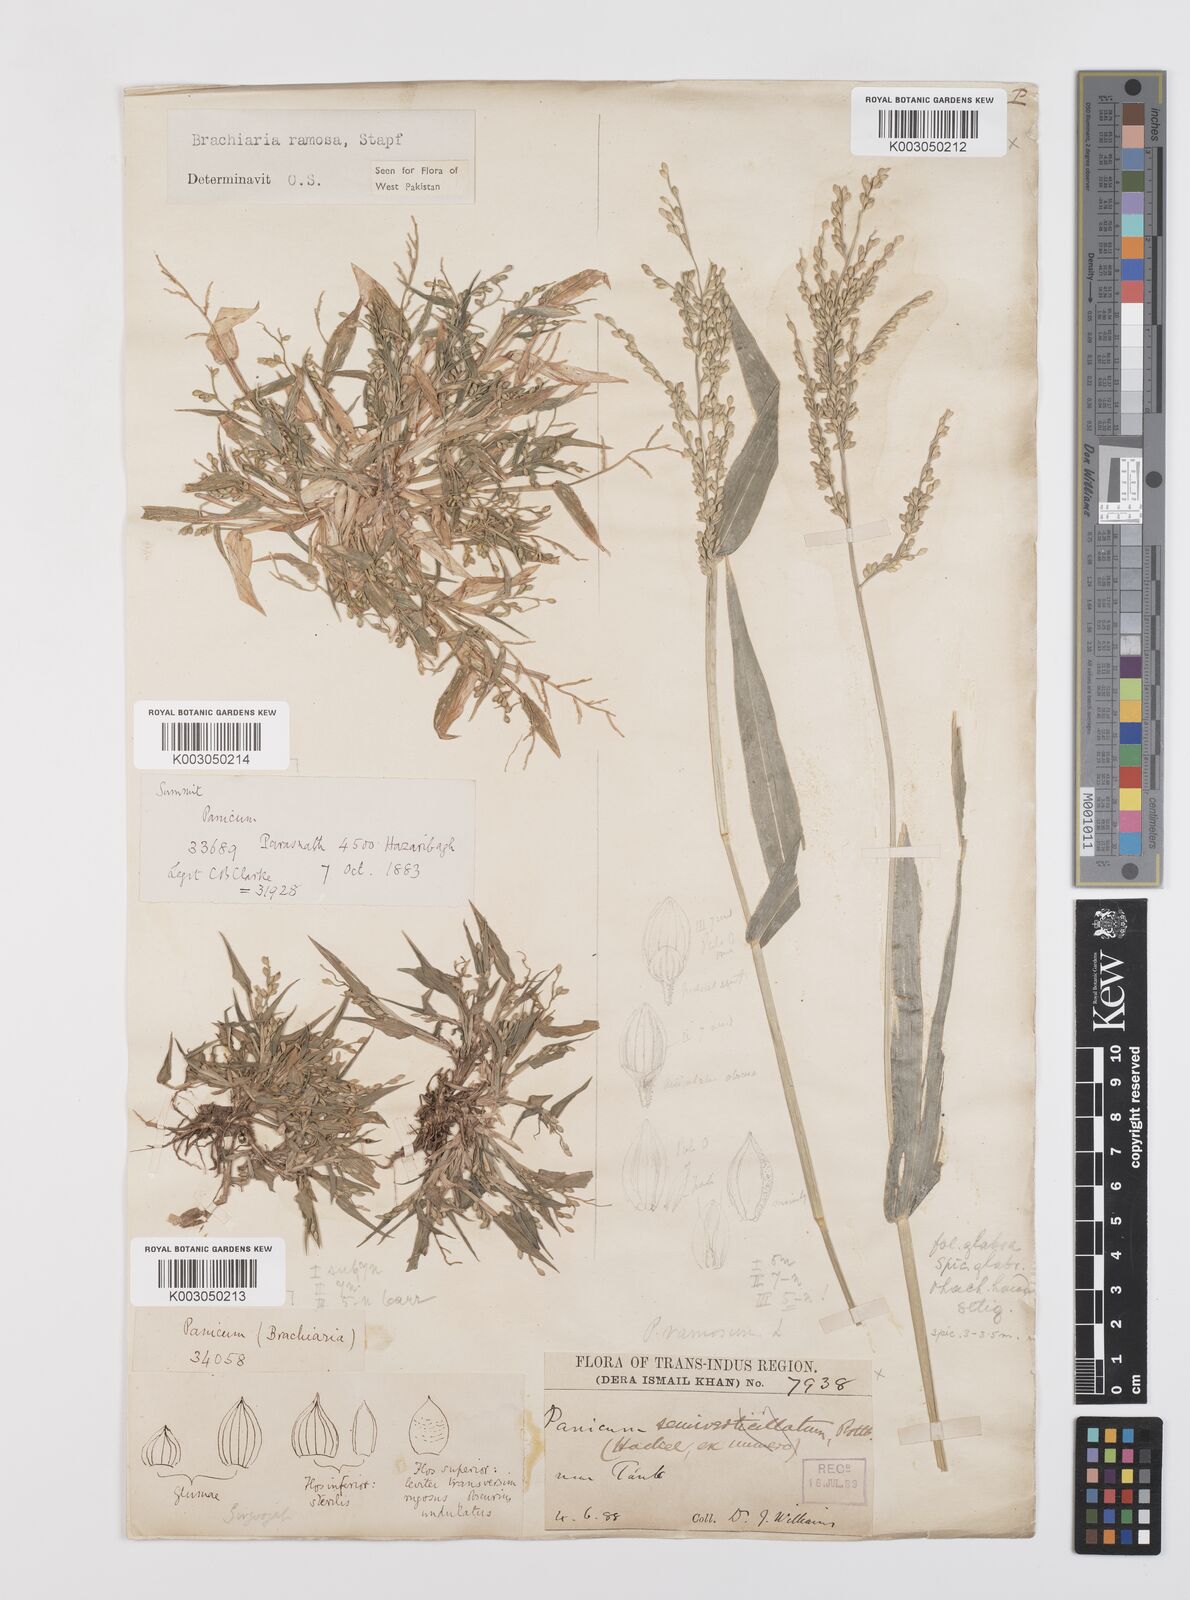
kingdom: Plantae
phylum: Tracheophyta
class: Liliopsida
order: Poales
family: Poaceae
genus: Urochloa
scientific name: Urochloa ramosa
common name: Browntop millet
